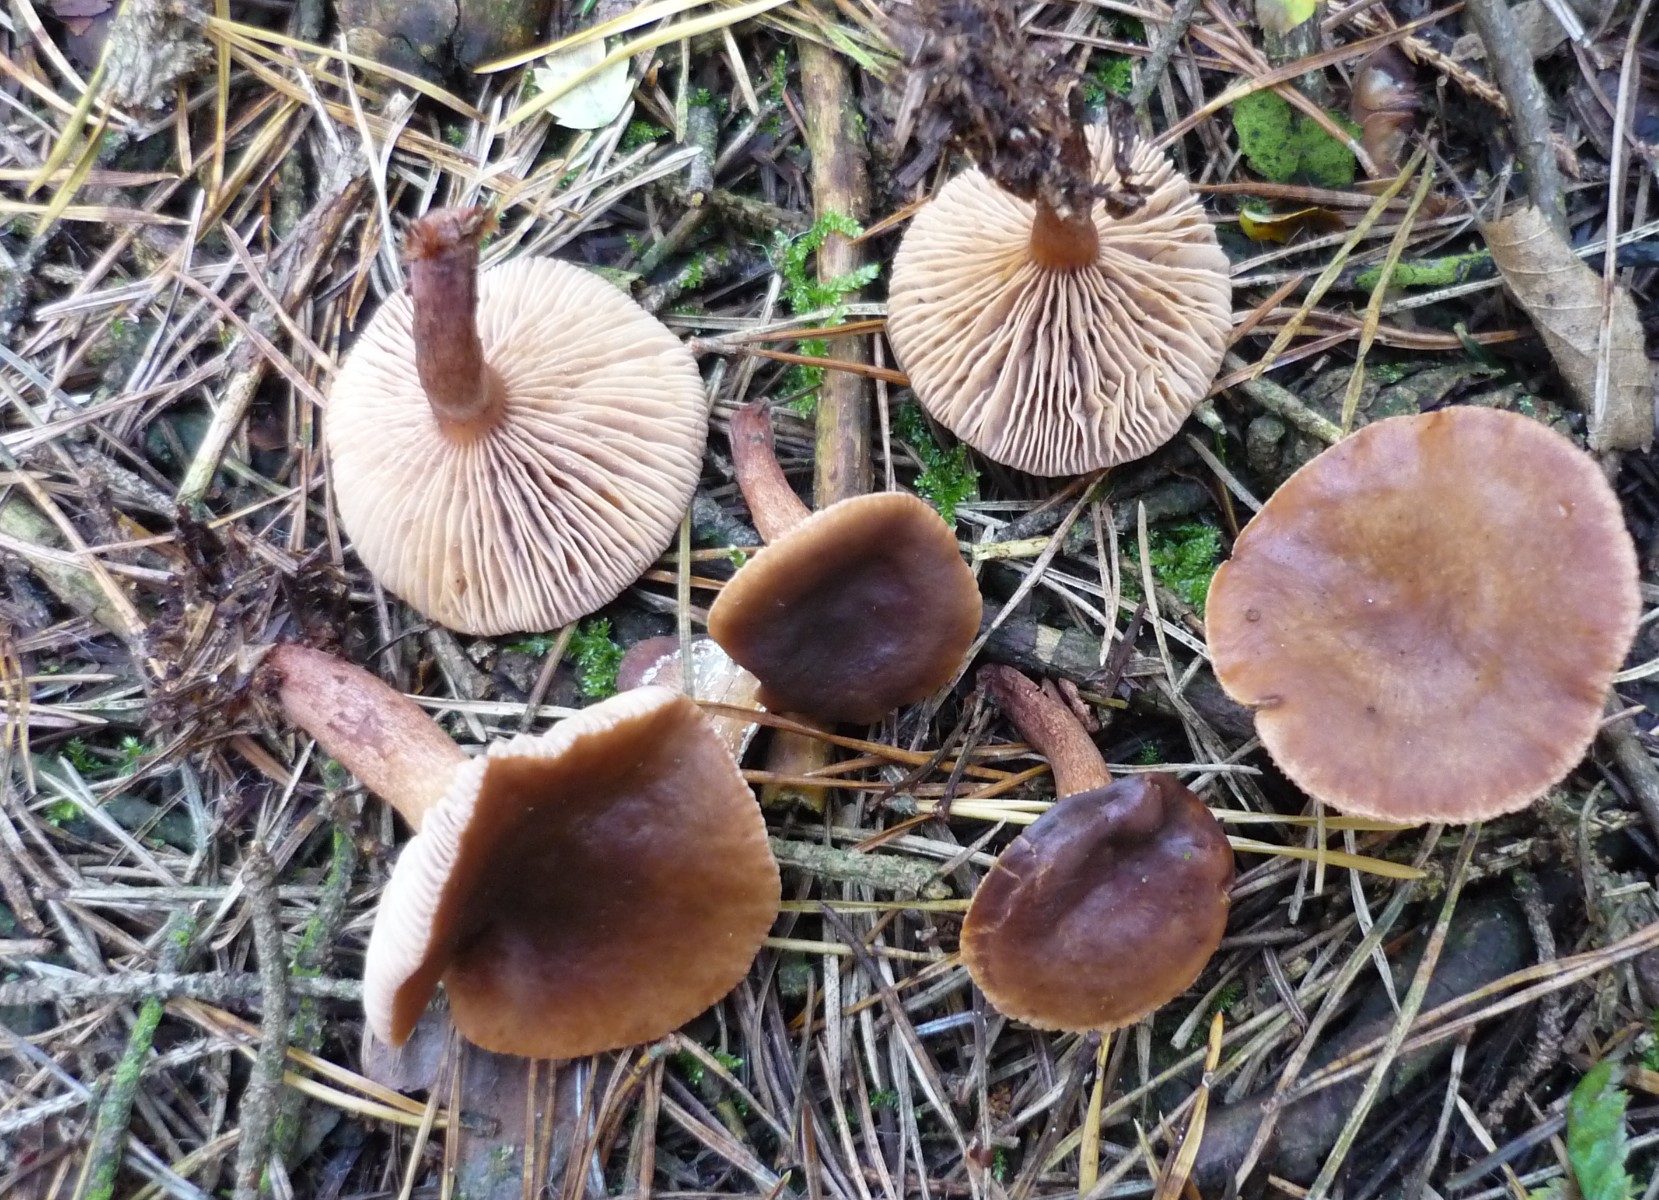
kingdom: Fungi
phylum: Basidiomycota
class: Agaricomycetes
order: Russulales
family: Russulaceae
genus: Lactarius
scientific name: Lactarius hepaticus
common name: leverbrun mælkehat
